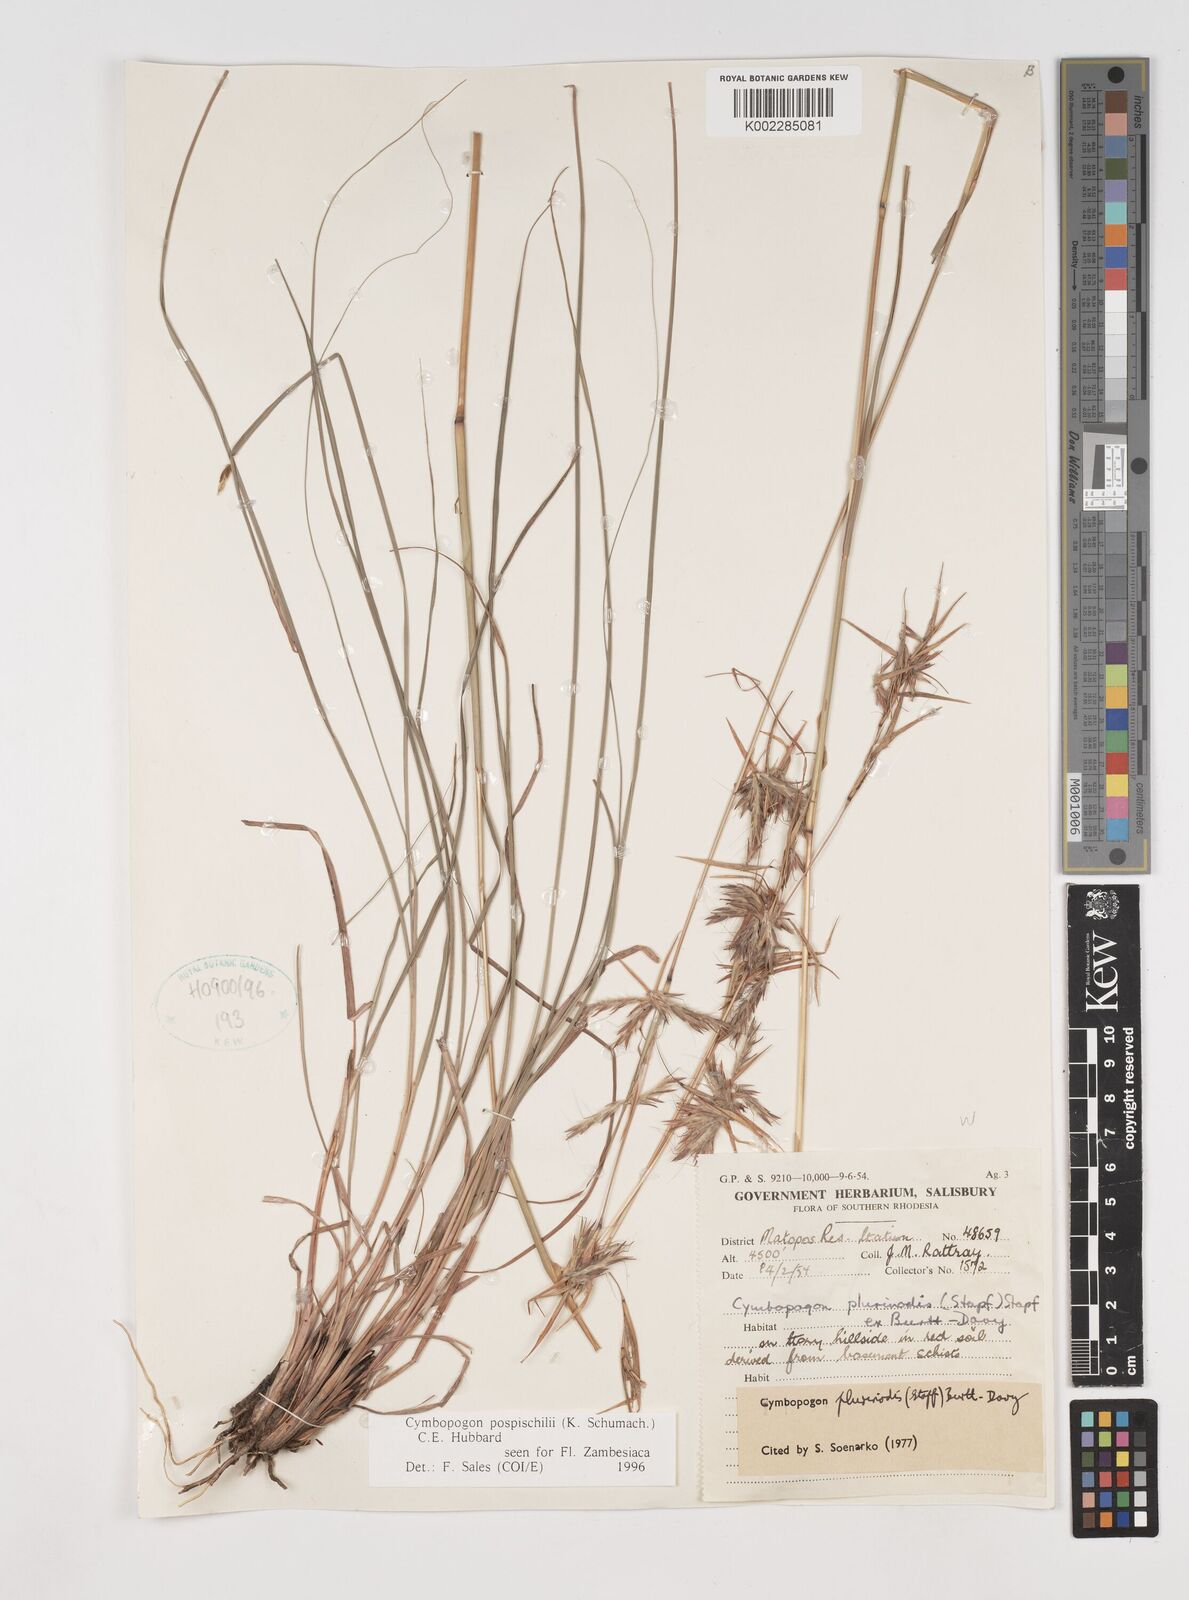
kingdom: Plantae
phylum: Tracheophyta
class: Liliopsida
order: Poales
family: Poaceae
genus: Cymbopogon
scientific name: Cymbopogon pospischilii
